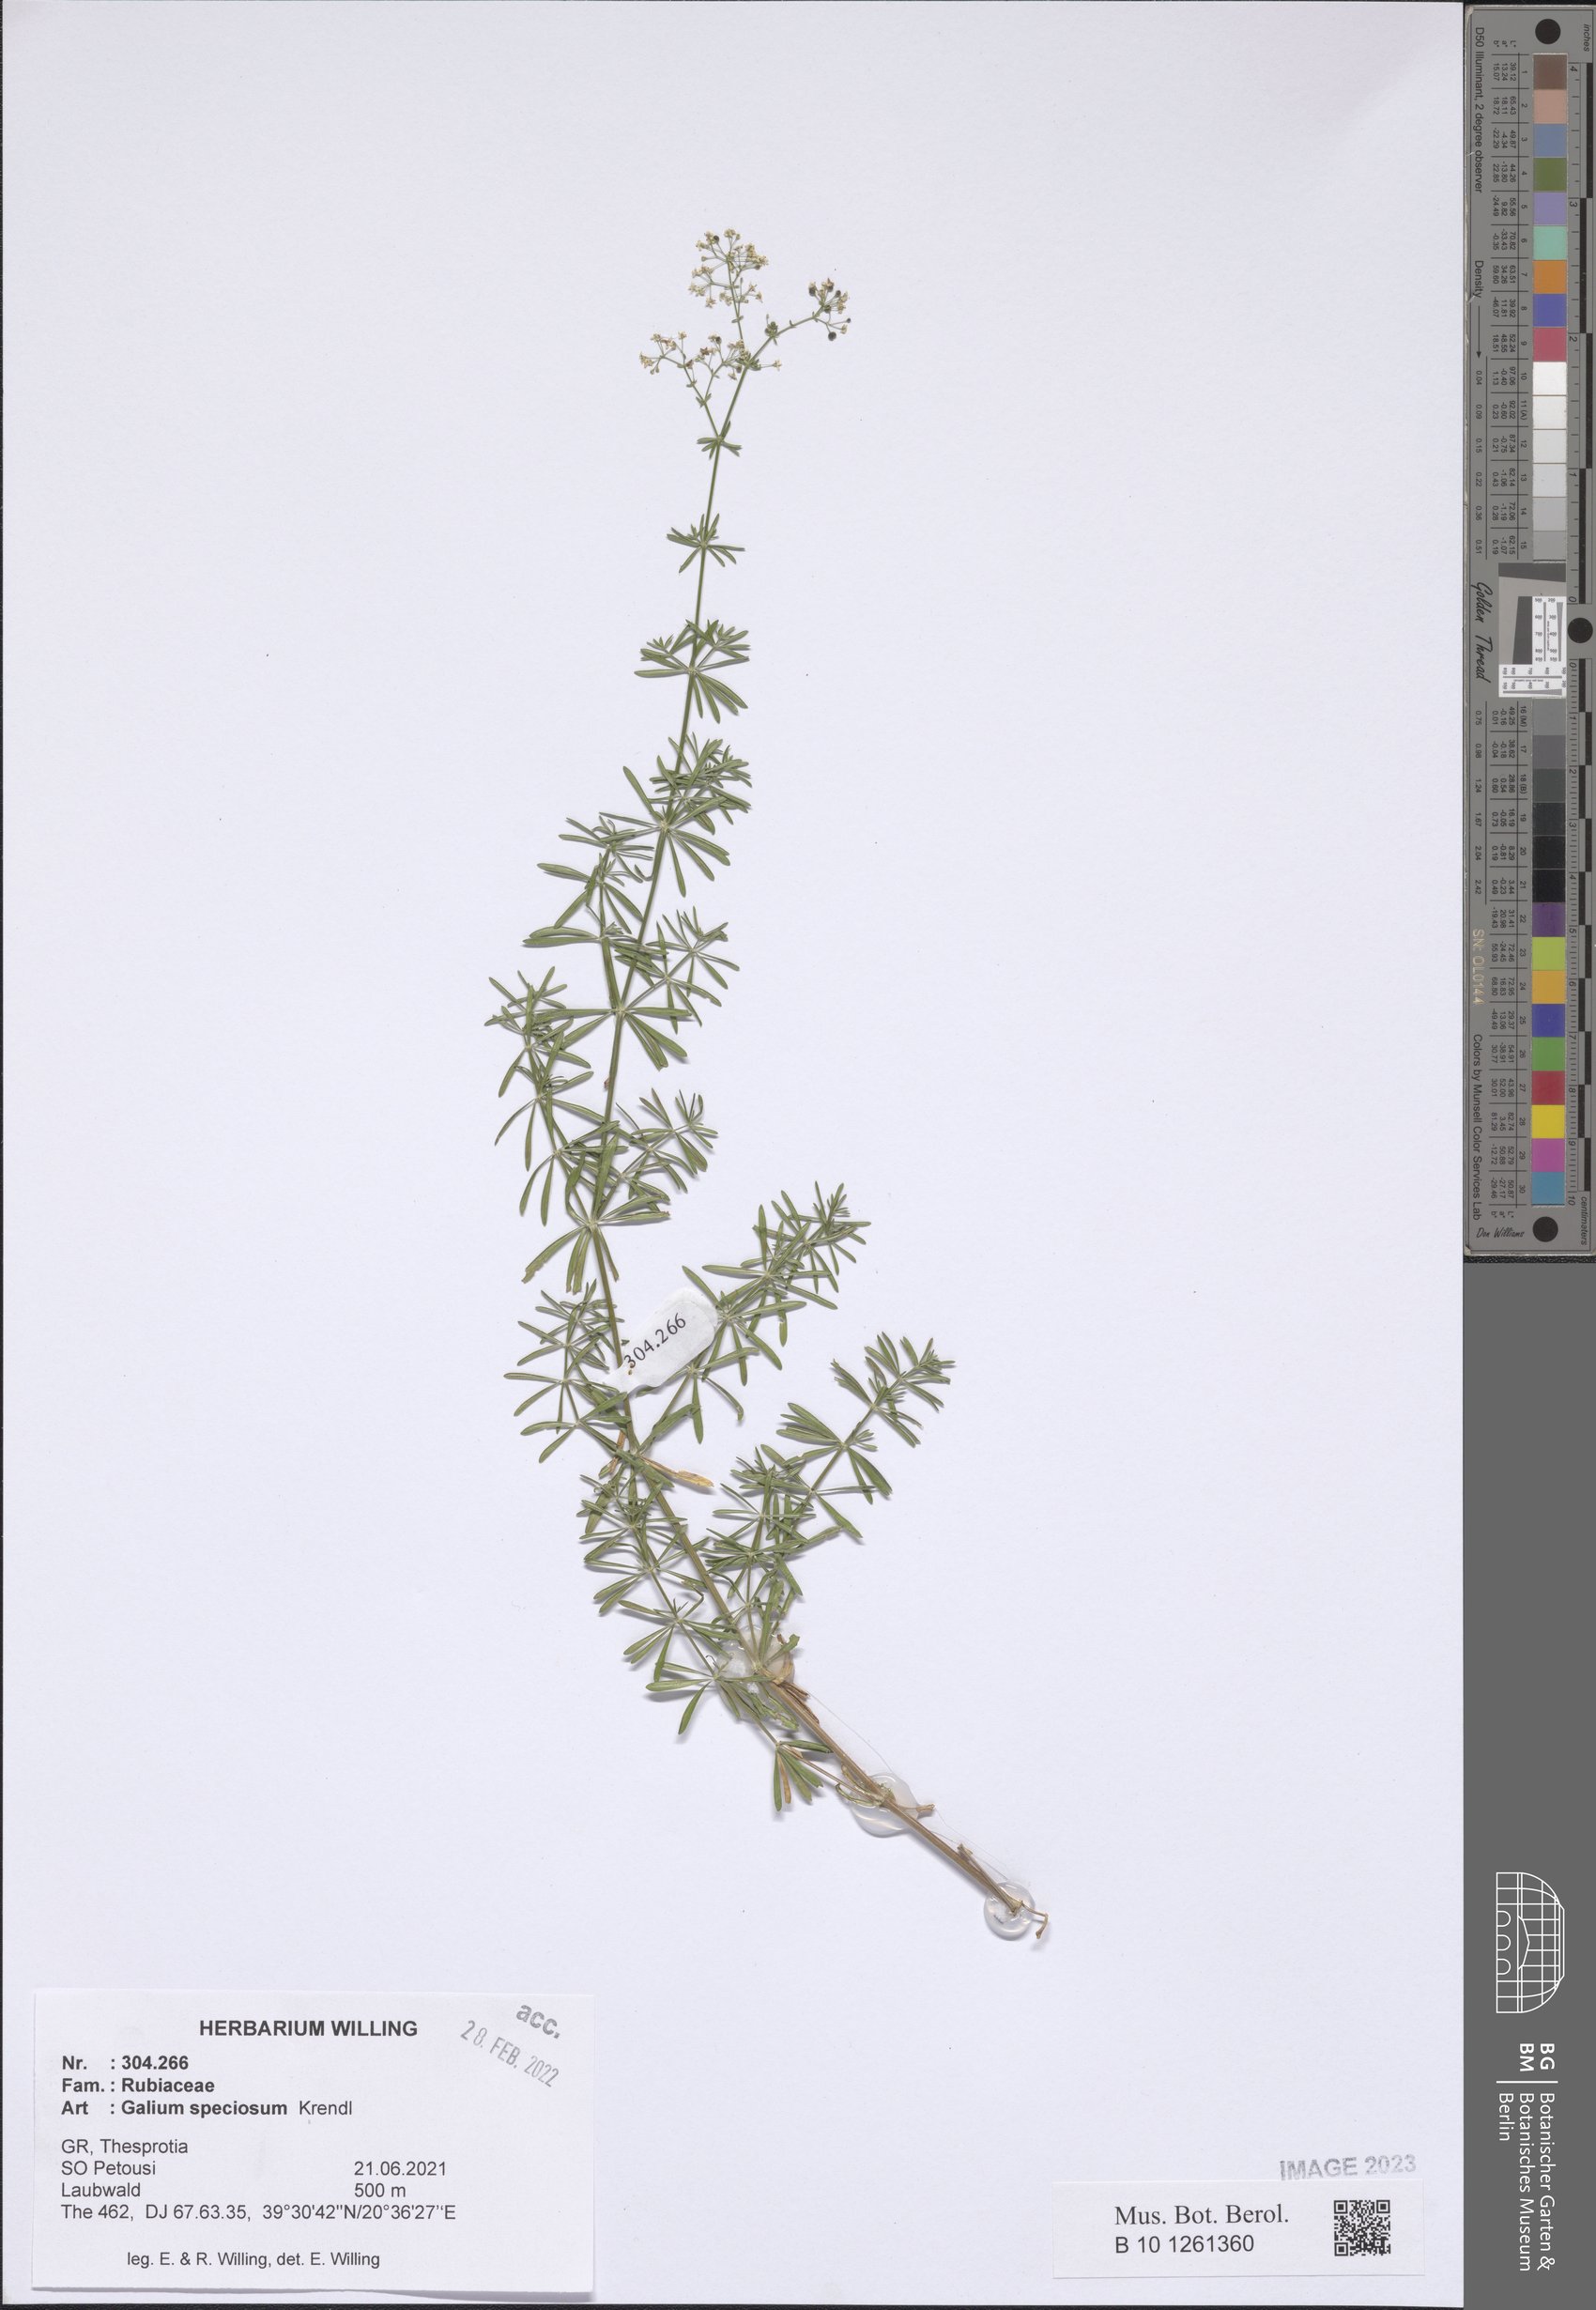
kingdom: Plantae
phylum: Tracheophyta
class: Magnoliopsida
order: Gentianales
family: Rubiaceae
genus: Galium
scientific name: Galium speciosum
